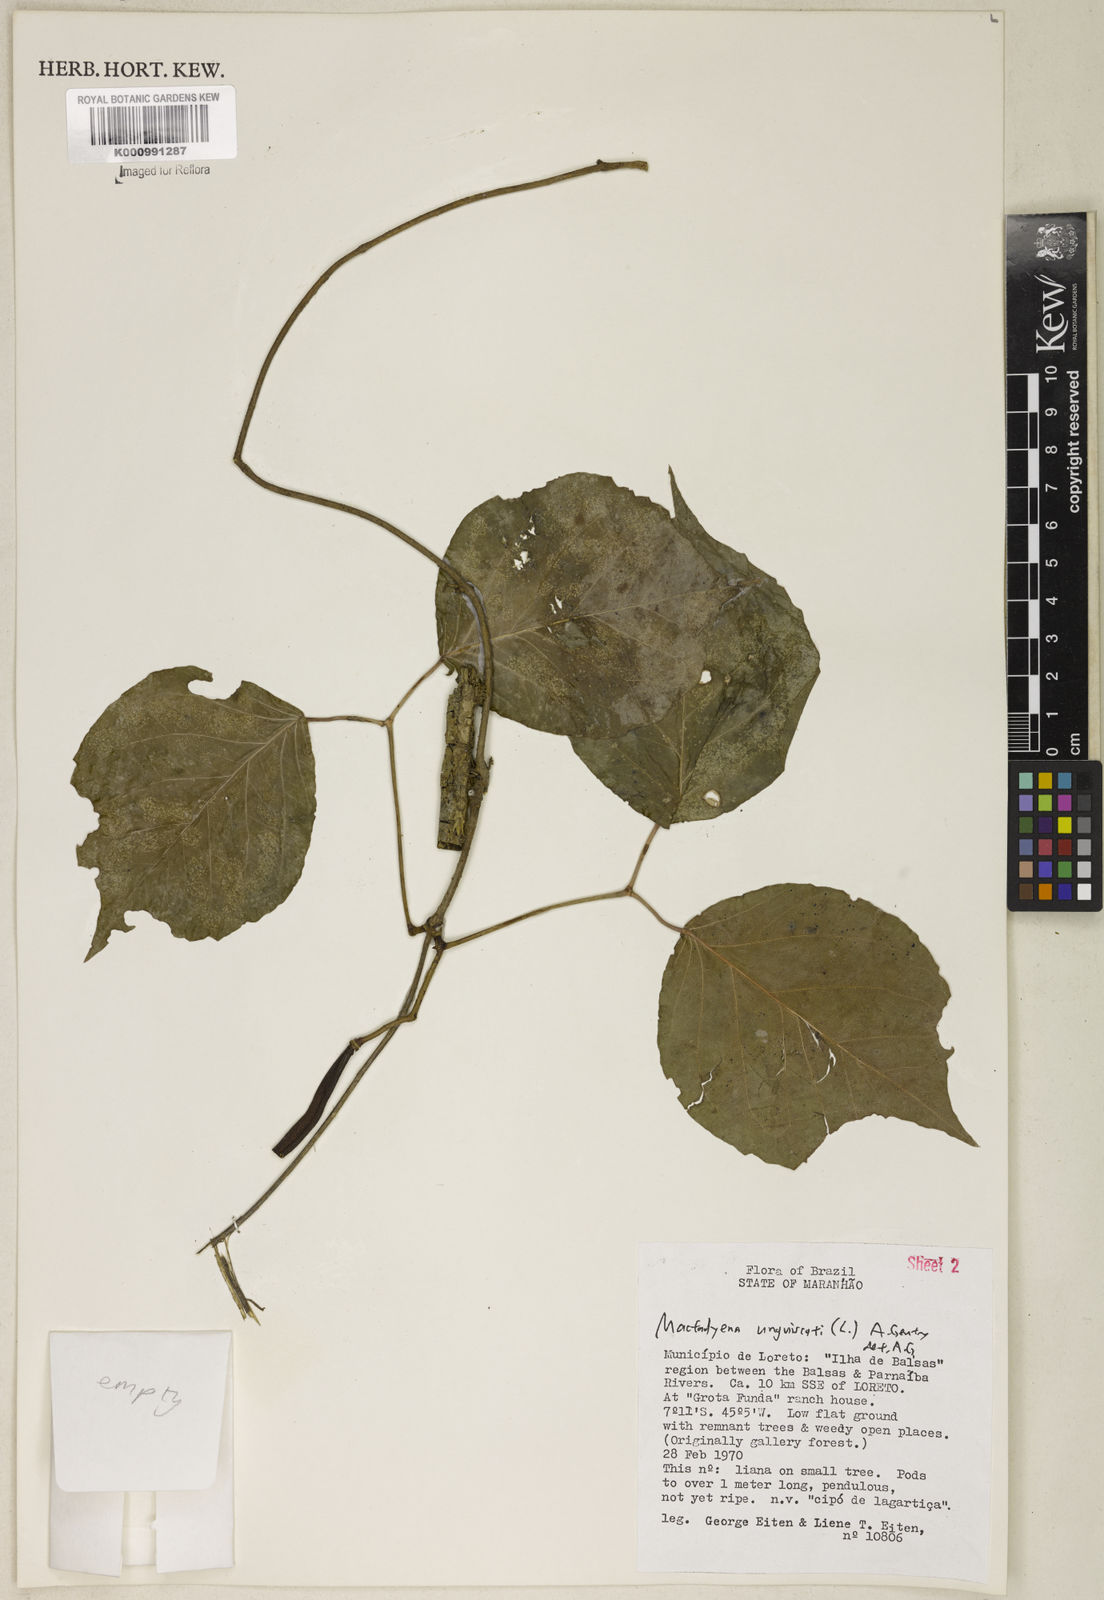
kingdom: Plantae
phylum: Tracheophyta
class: Magnoliopsida
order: Lamiales
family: Bignoniaceae
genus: Dolichandra
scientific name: Dolichandra unguis-cati
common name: Catclaw vine
